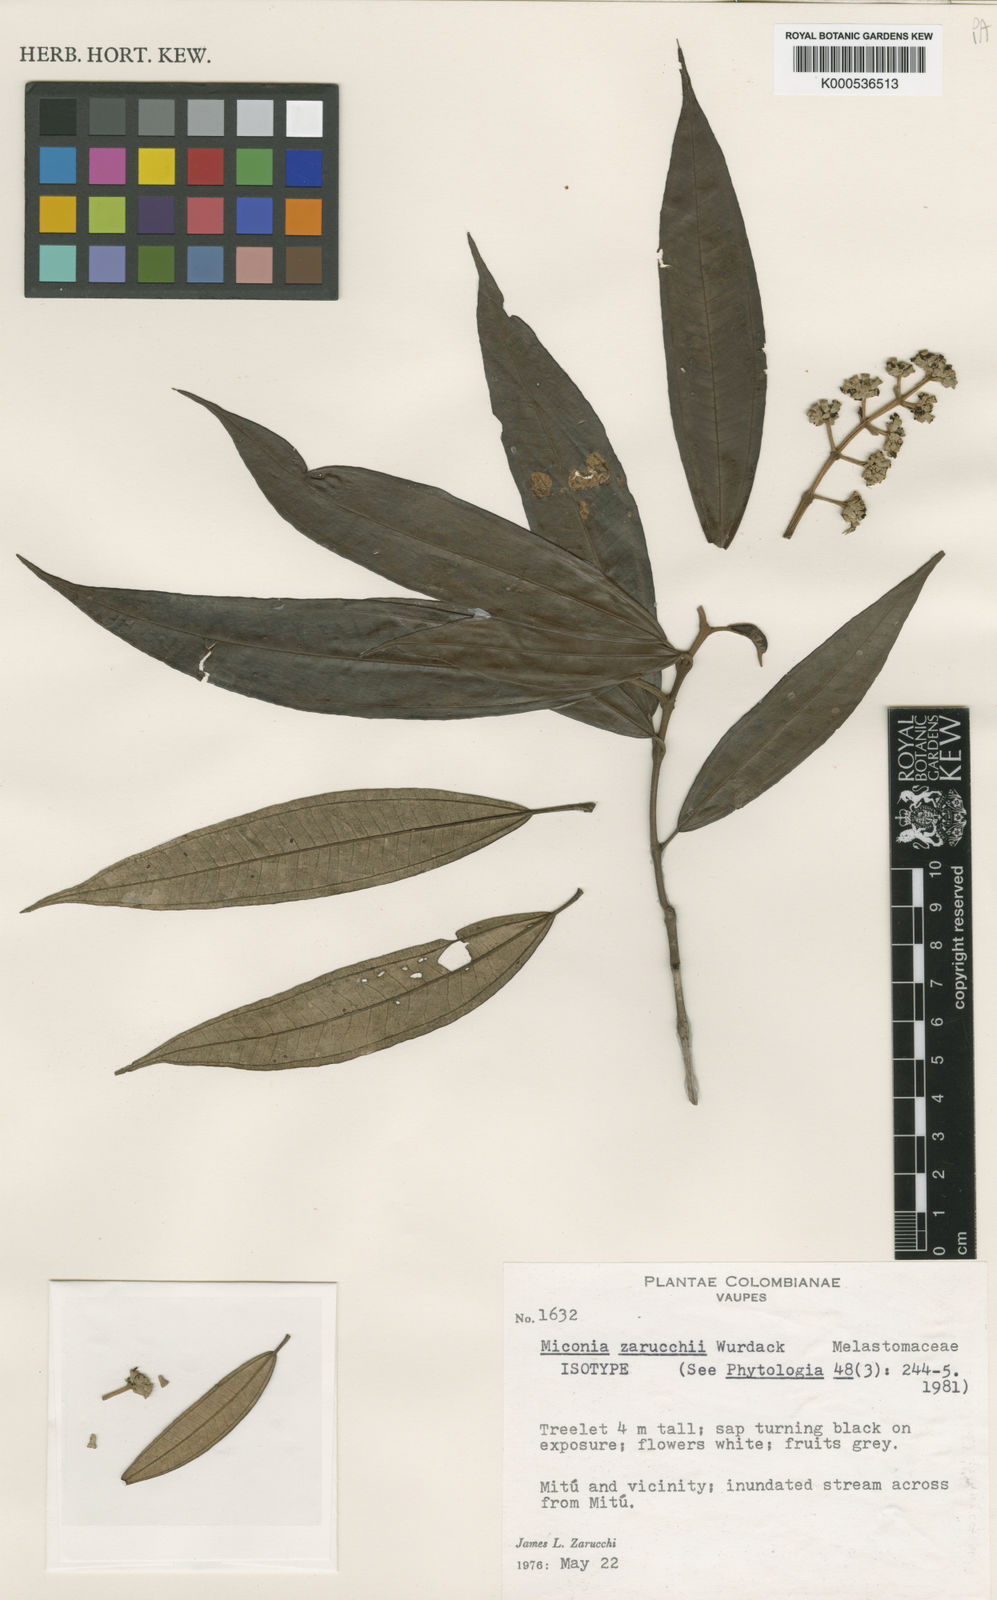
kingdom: Plantae
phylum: Tracheophyta
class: Magnoliopsida
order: Myrtales
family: Melastomataceae
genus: Miconia
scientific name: Miconia zarucchii
